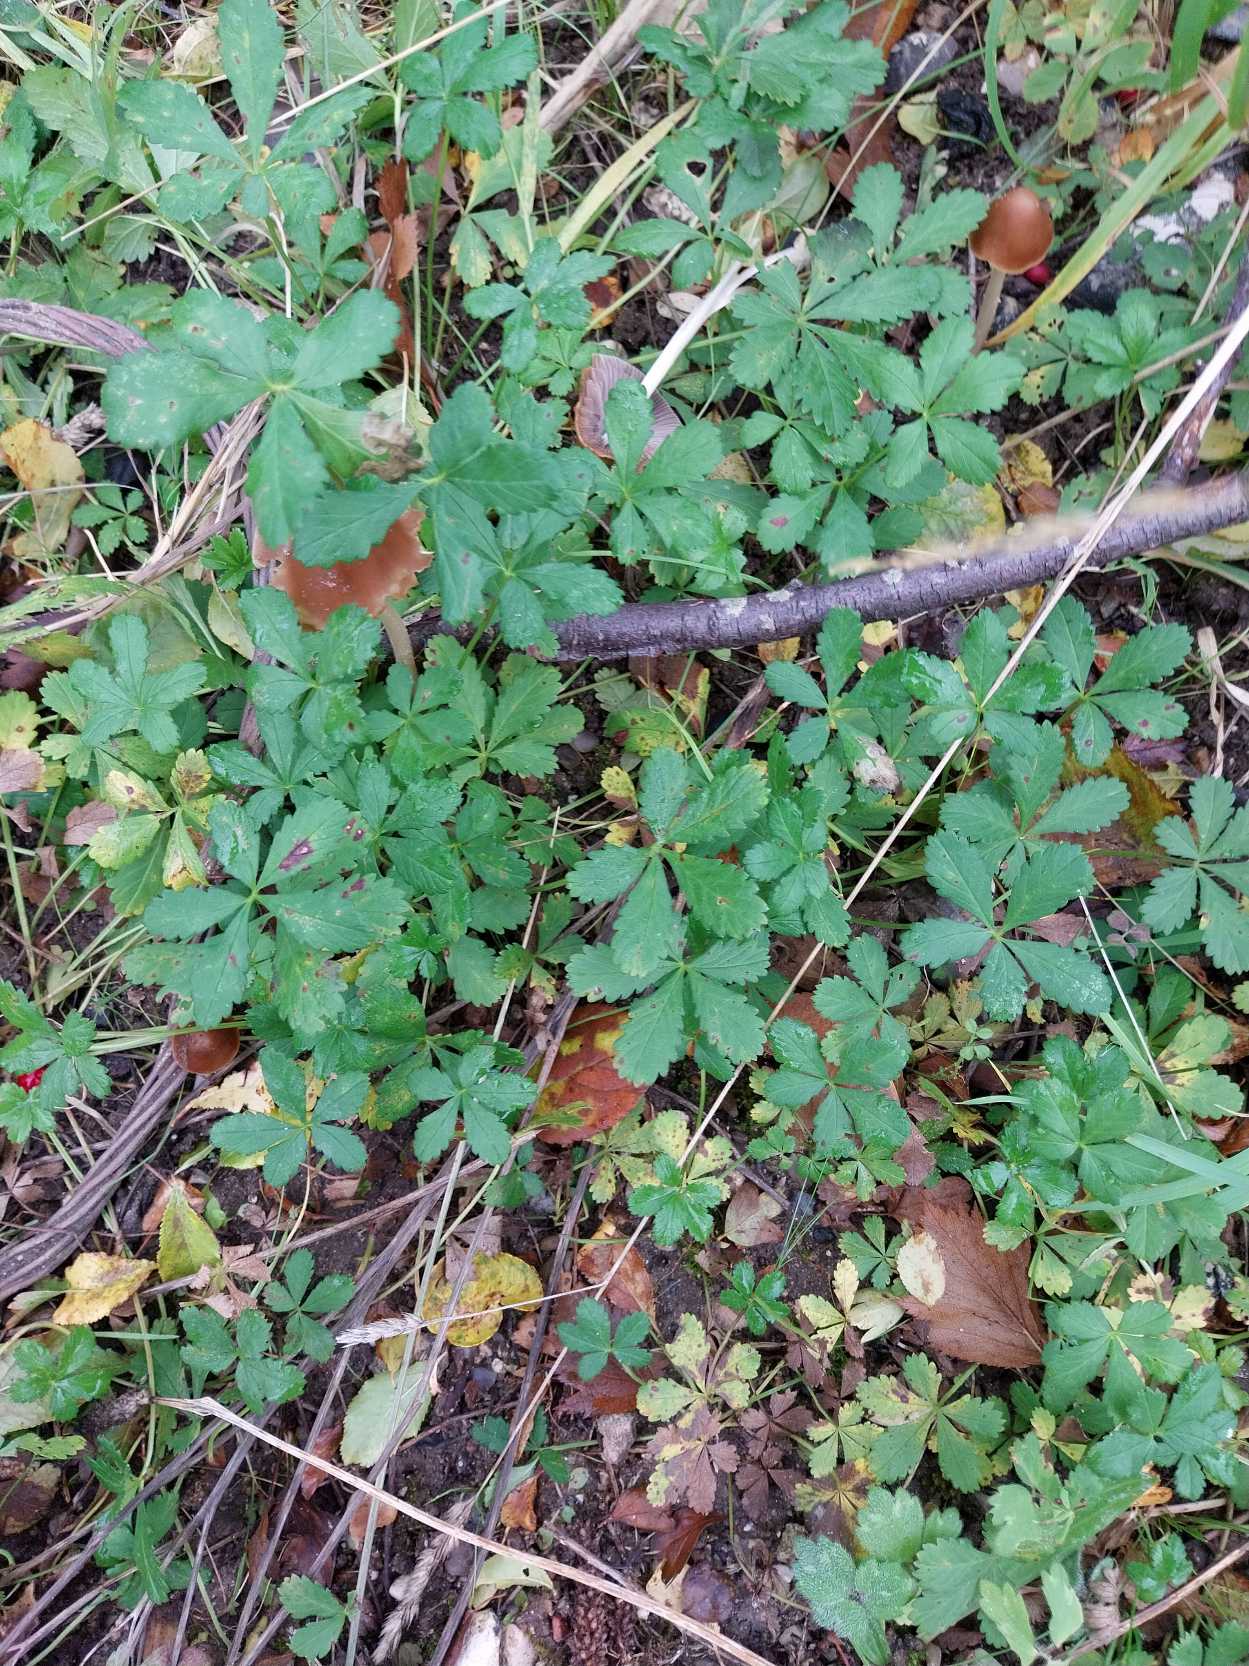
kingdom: Plantae
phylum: Tracheophyta
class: Magnoliopsida
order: Rosales
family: Rosaceae
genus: Potentilla
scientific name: Potentilla reptans
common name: Krybende potentil
